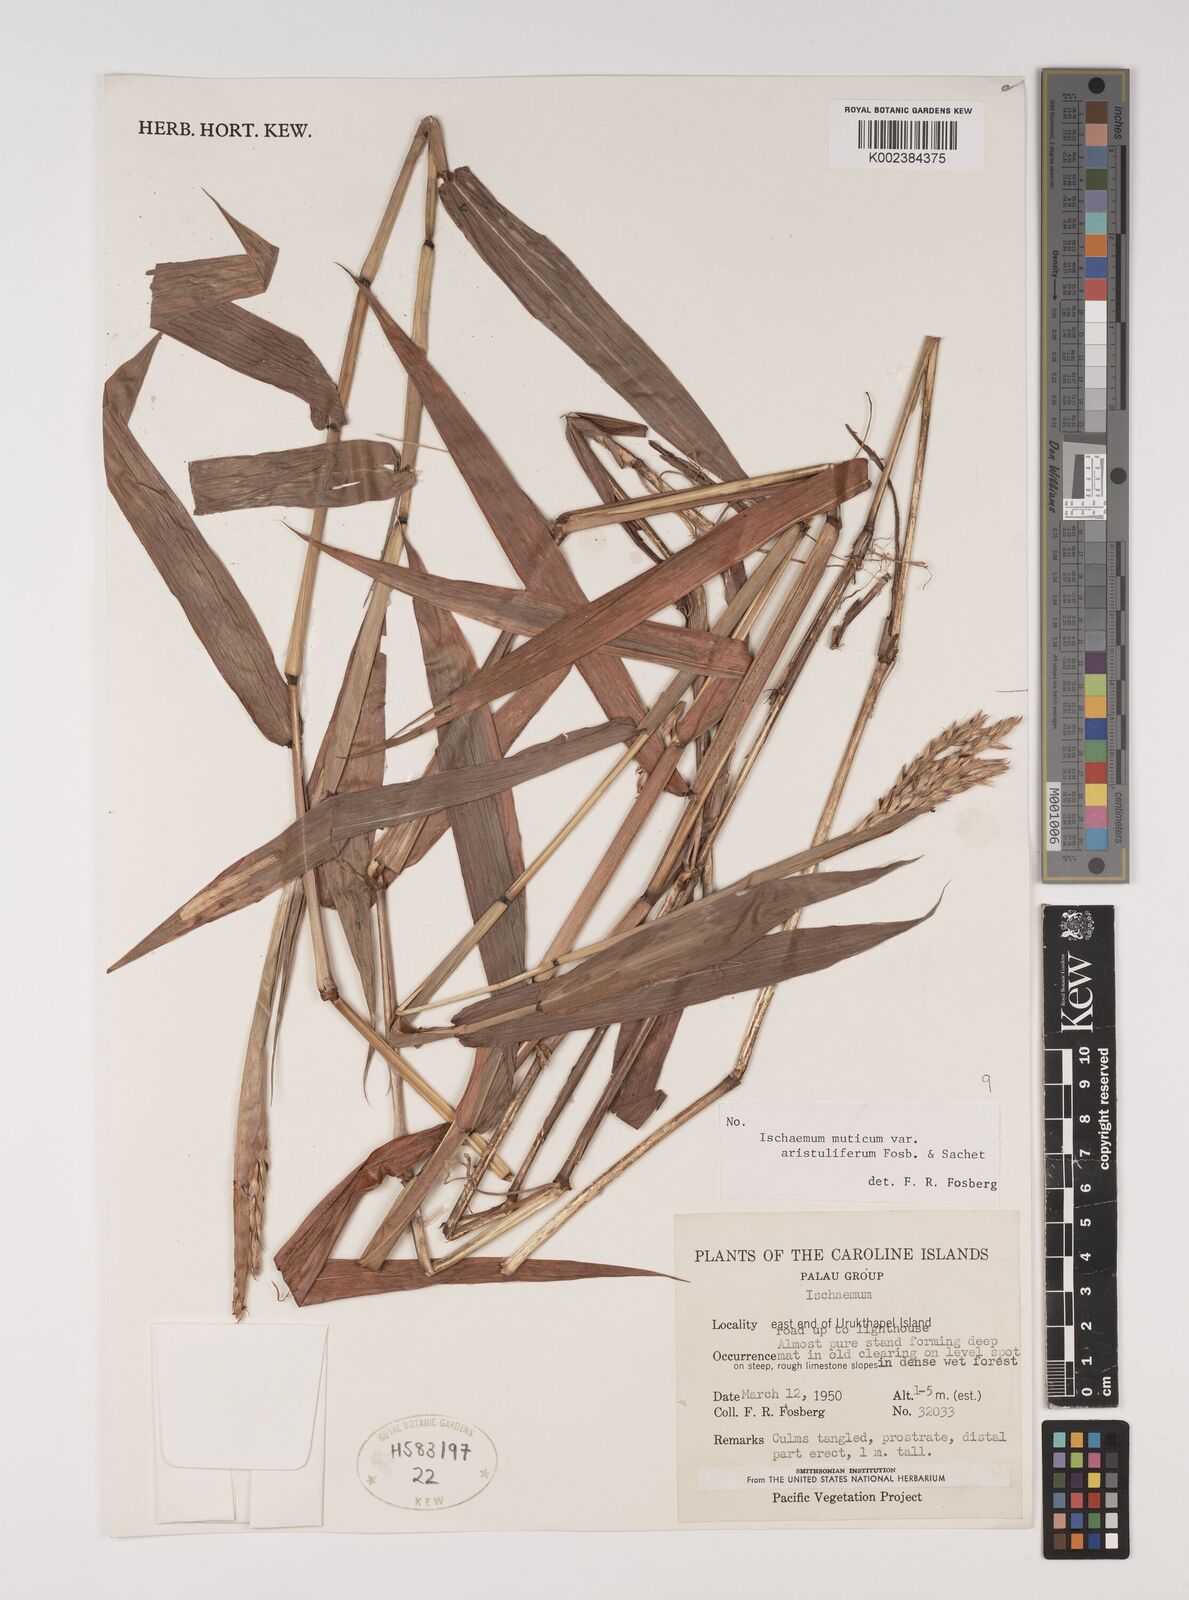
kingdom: Plantae
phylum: Tracheophyta
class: Liliopsida
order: Poales
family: Poaceae
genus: Ischaemum
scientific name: Ischaemum muticum
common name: Drought grass
